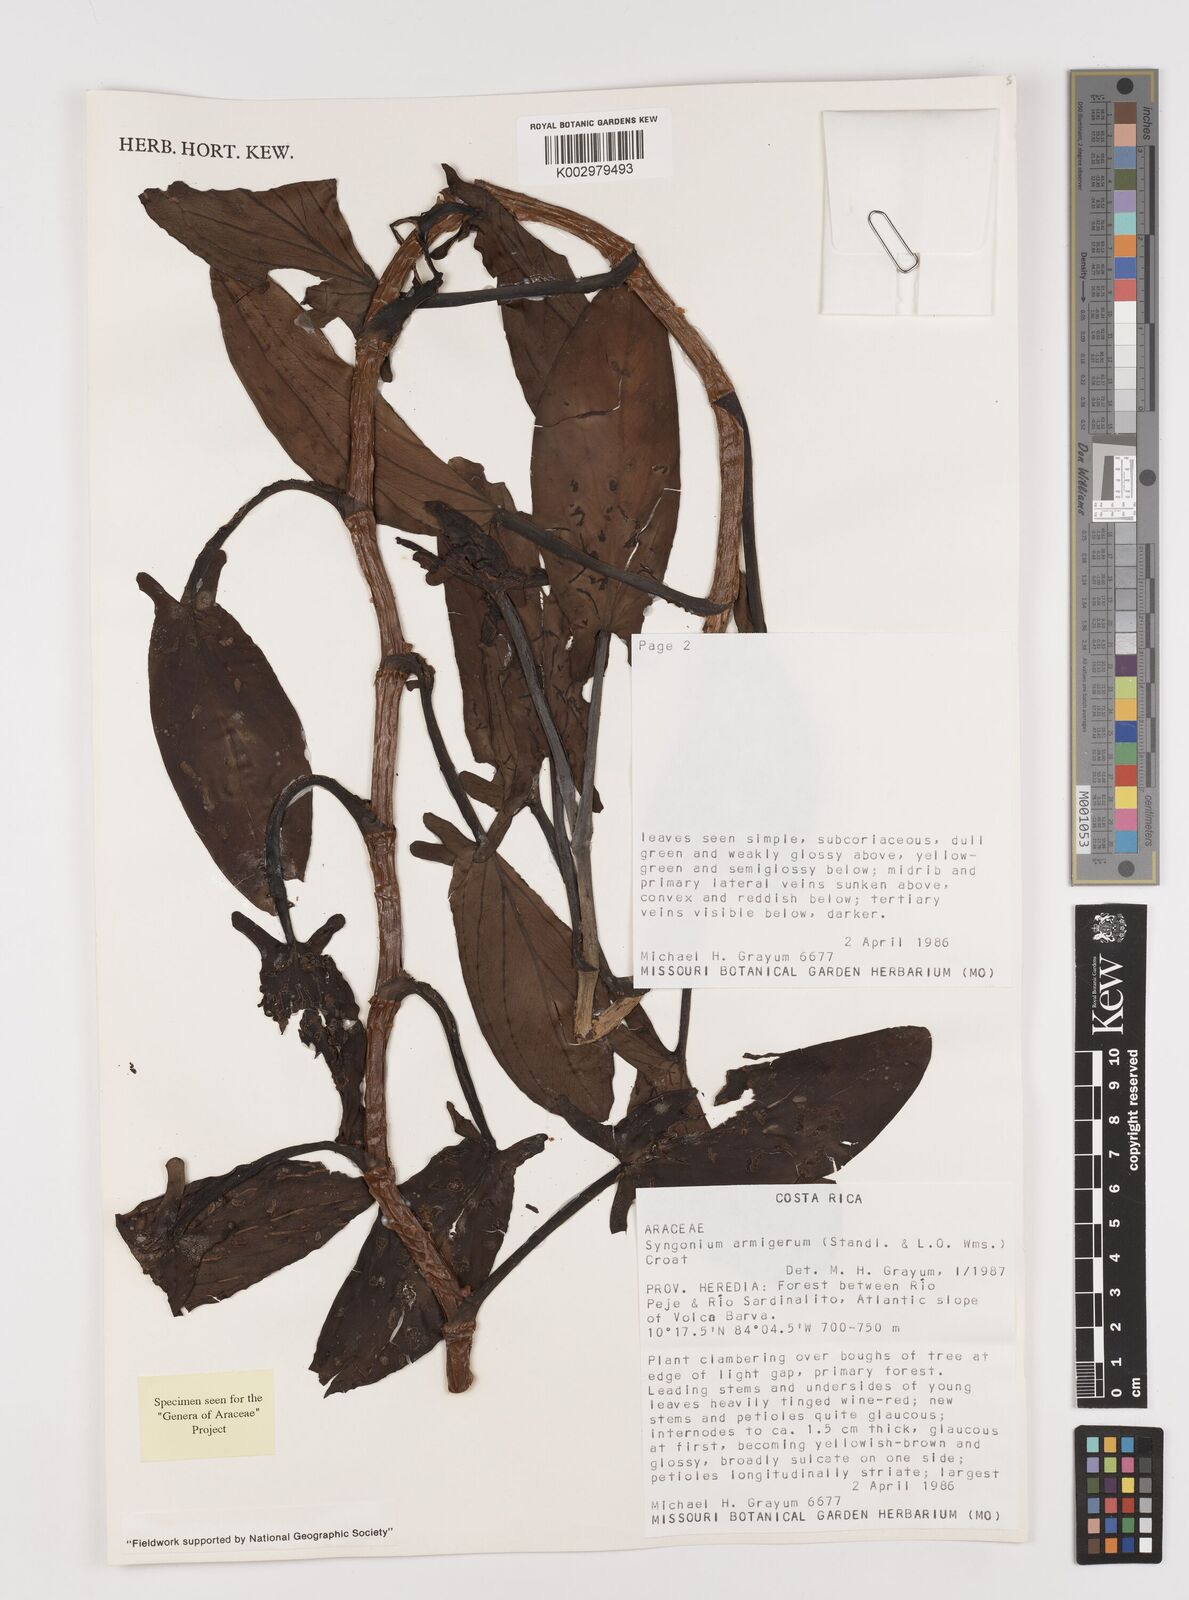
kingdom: Plantae
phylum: Tracheophyta
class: Liliopsida
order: Alismatales
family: Araceae
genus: Syngonium
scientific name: Syngonium armigerum
